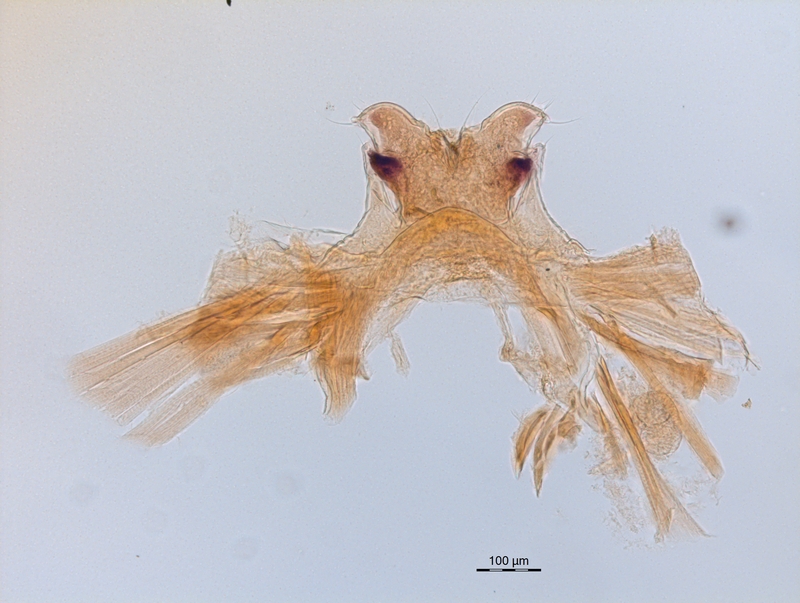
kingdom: Animalia
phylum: Arthropoda
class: Diplopoda
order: Chordeumatida
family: Craspedosomatidae
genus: Ochogona
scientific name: Ochogona caroli
